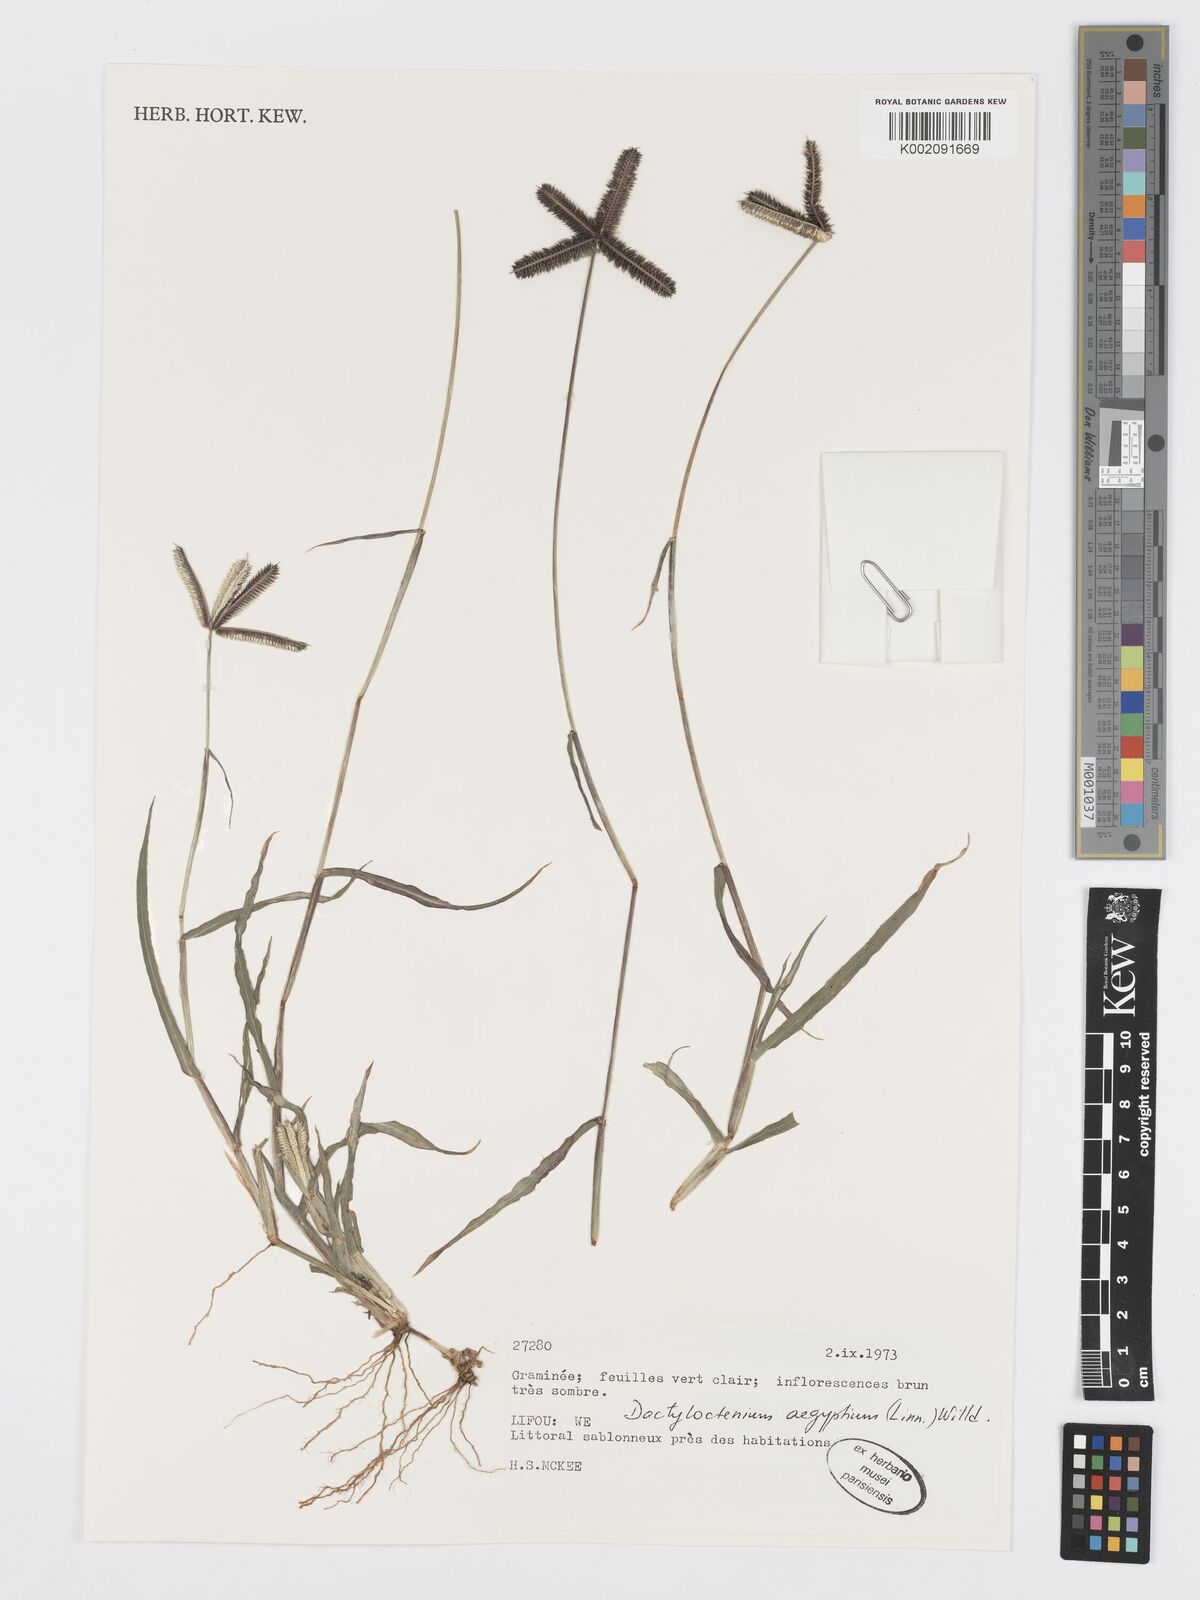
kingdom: Plantae
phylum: Tracheophyta
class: Liliopsida
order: Poales
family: Poaceae
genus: Dactyloctenium
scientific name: Dactyloctenium aegyptium
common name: Egyptian grass
